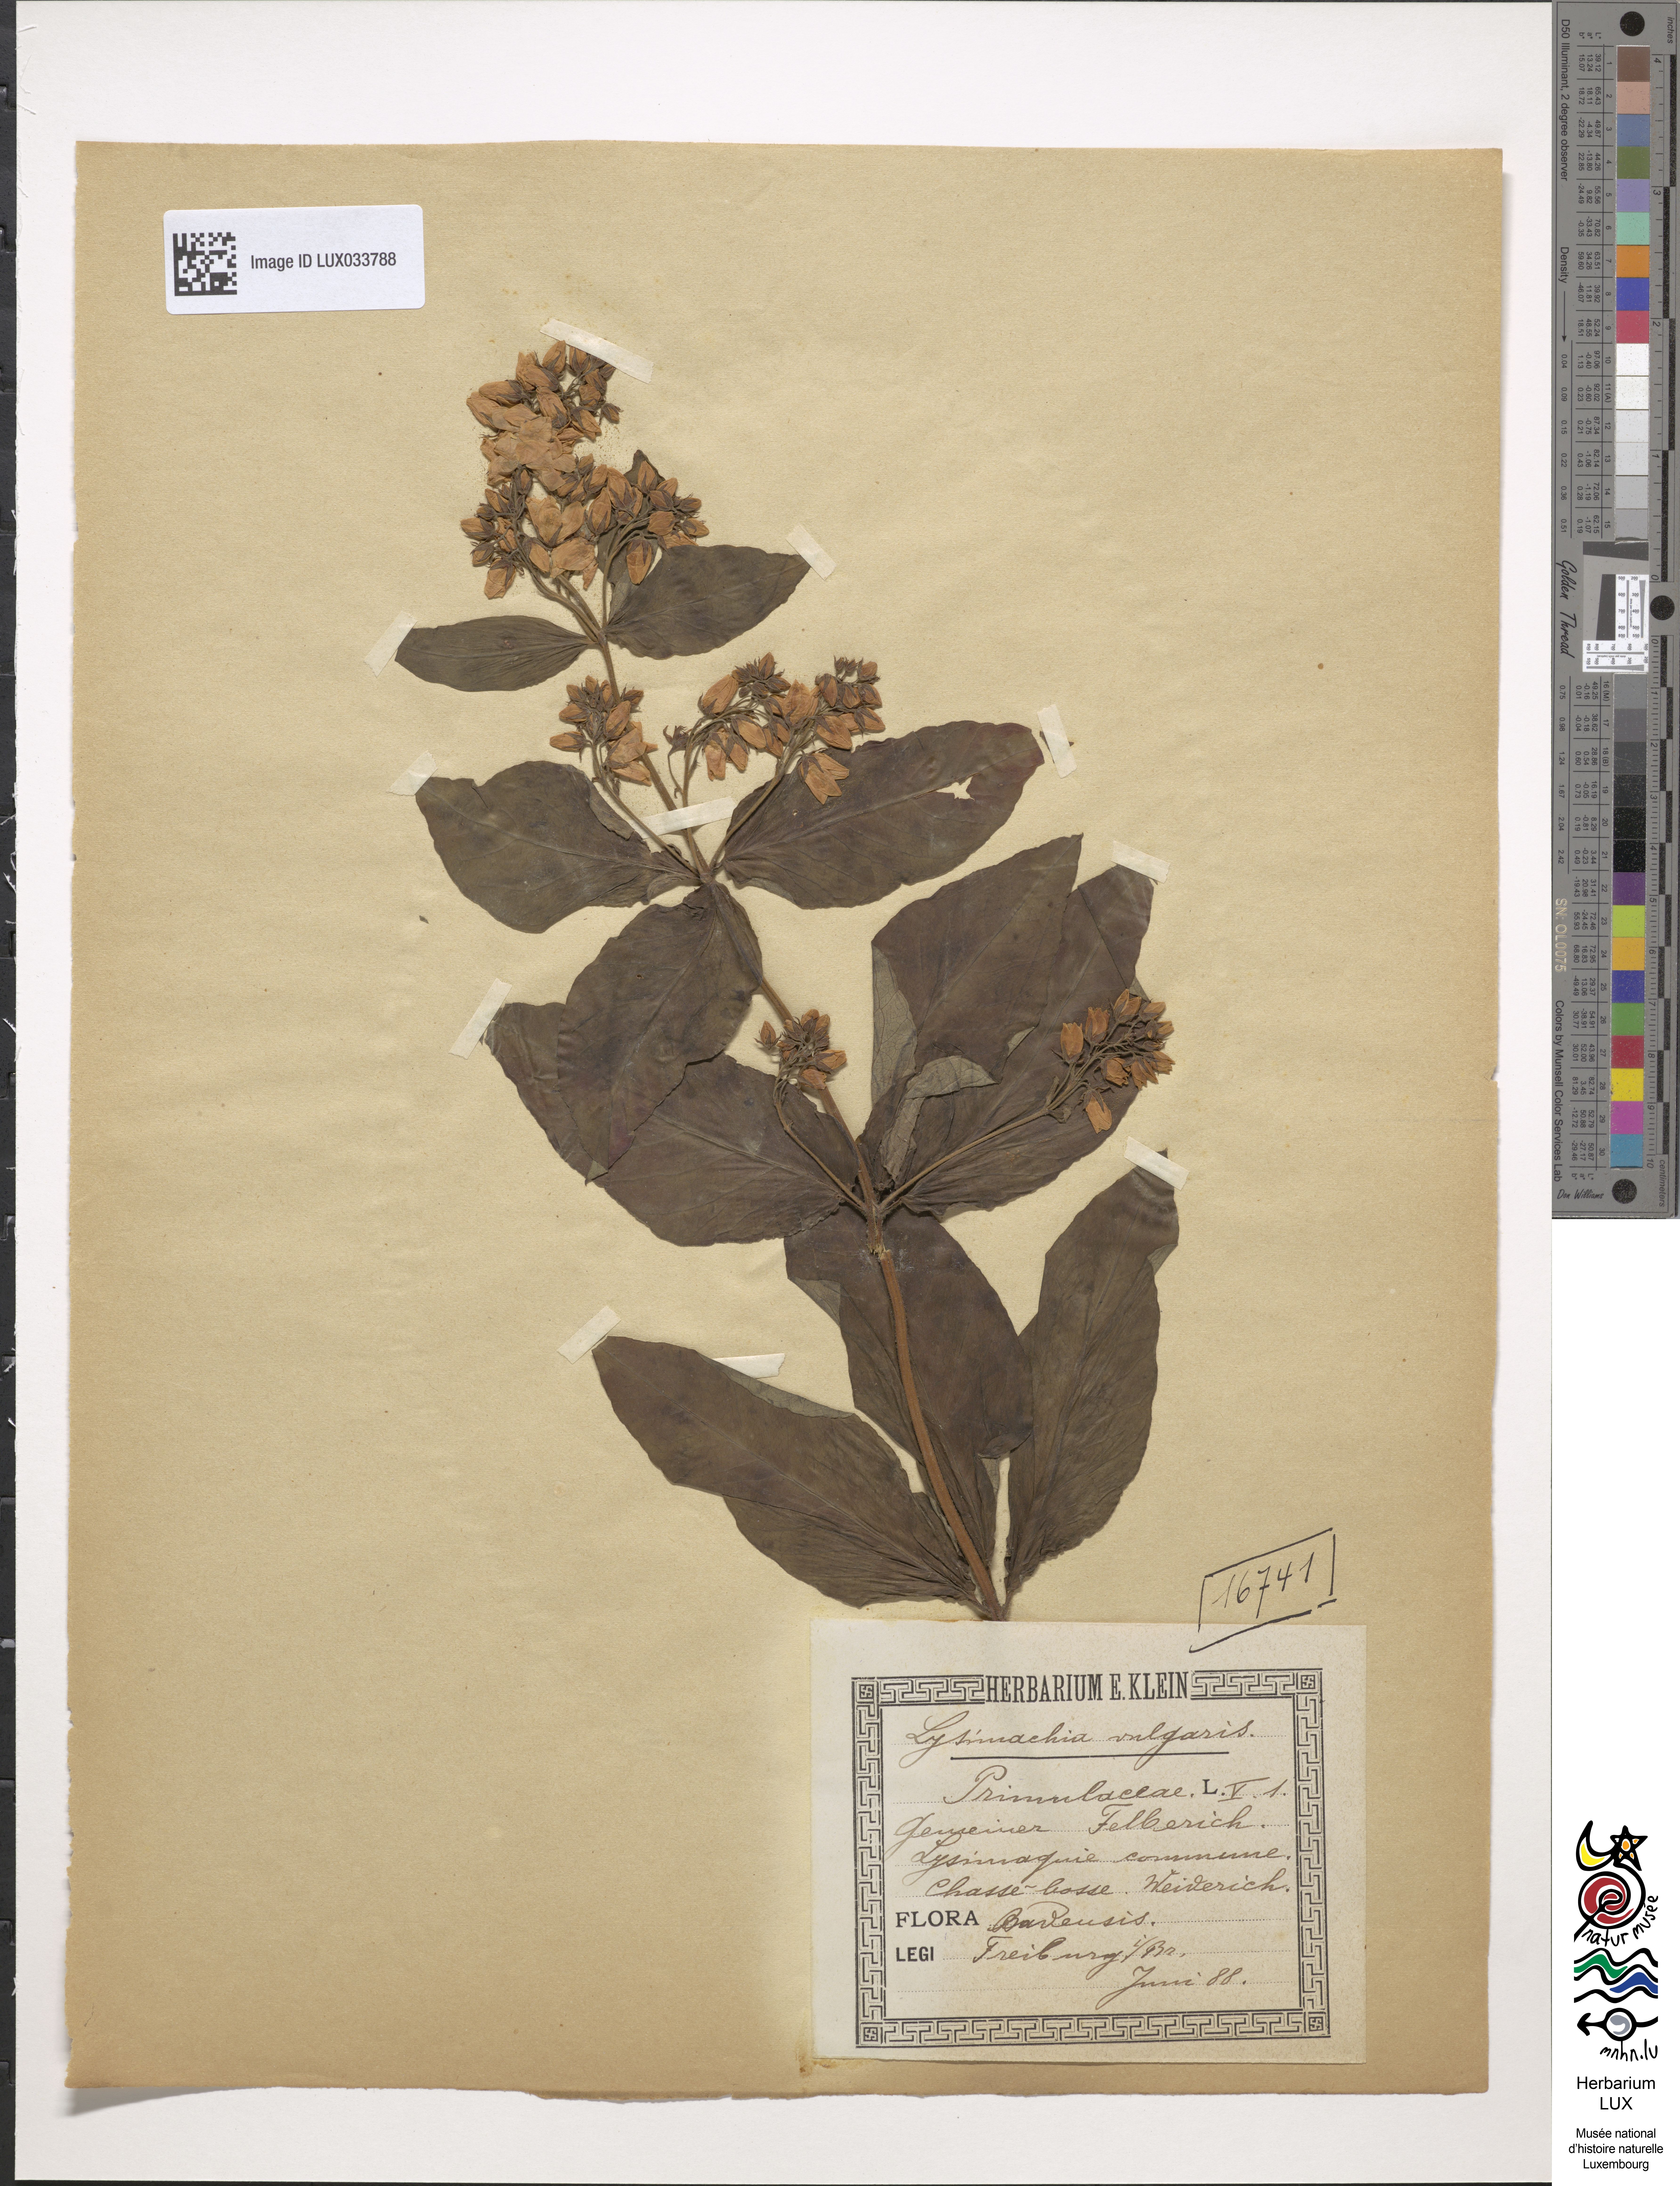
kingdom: Plantae
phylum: Tracheophyta
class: Magnoliopsida
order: Ericales
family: Primulaceae
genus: Lysimachia
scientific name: Lysimachia vulgaris
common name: Yellow loosestrife
